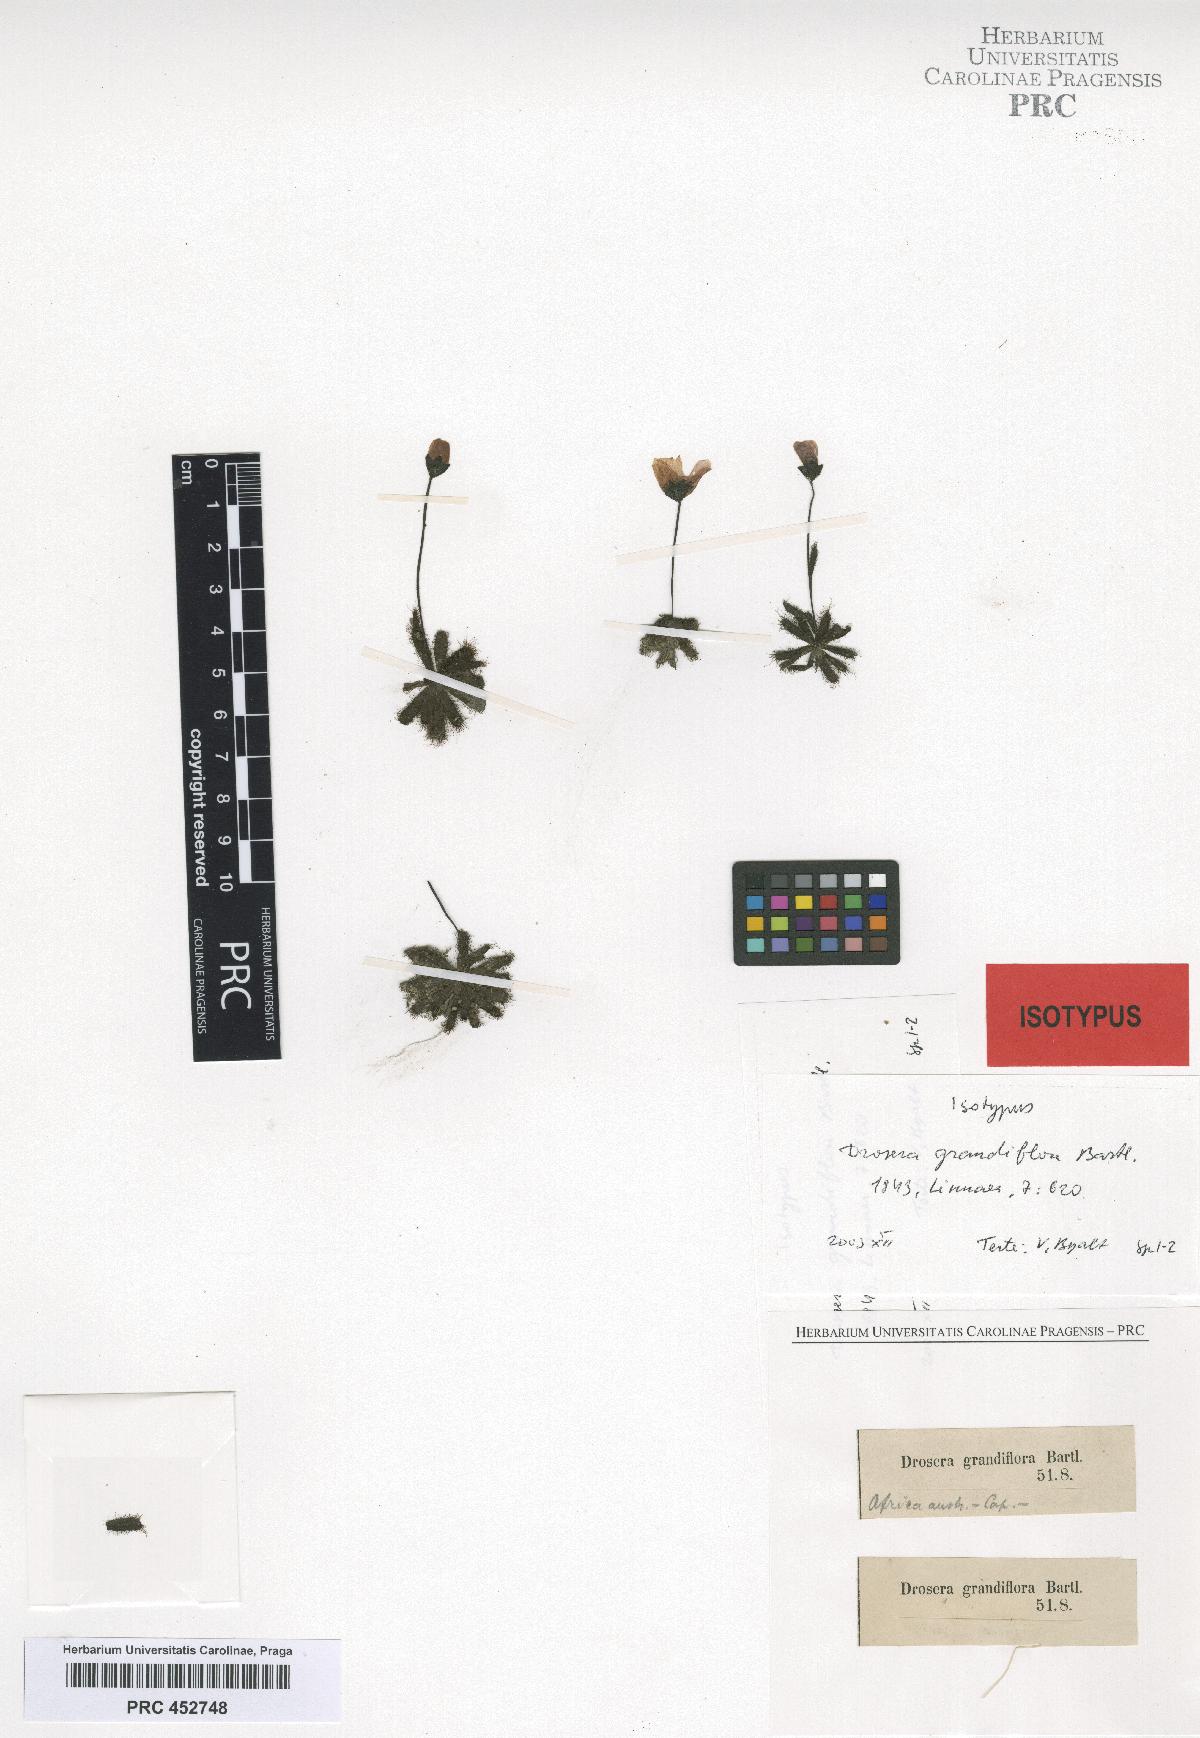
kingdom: Plantae
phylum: Tracheophyta
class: Magnoliopsida
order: Caryophyllales
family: Droseraceae
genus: Drosera
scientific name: Drosera pauciflora
